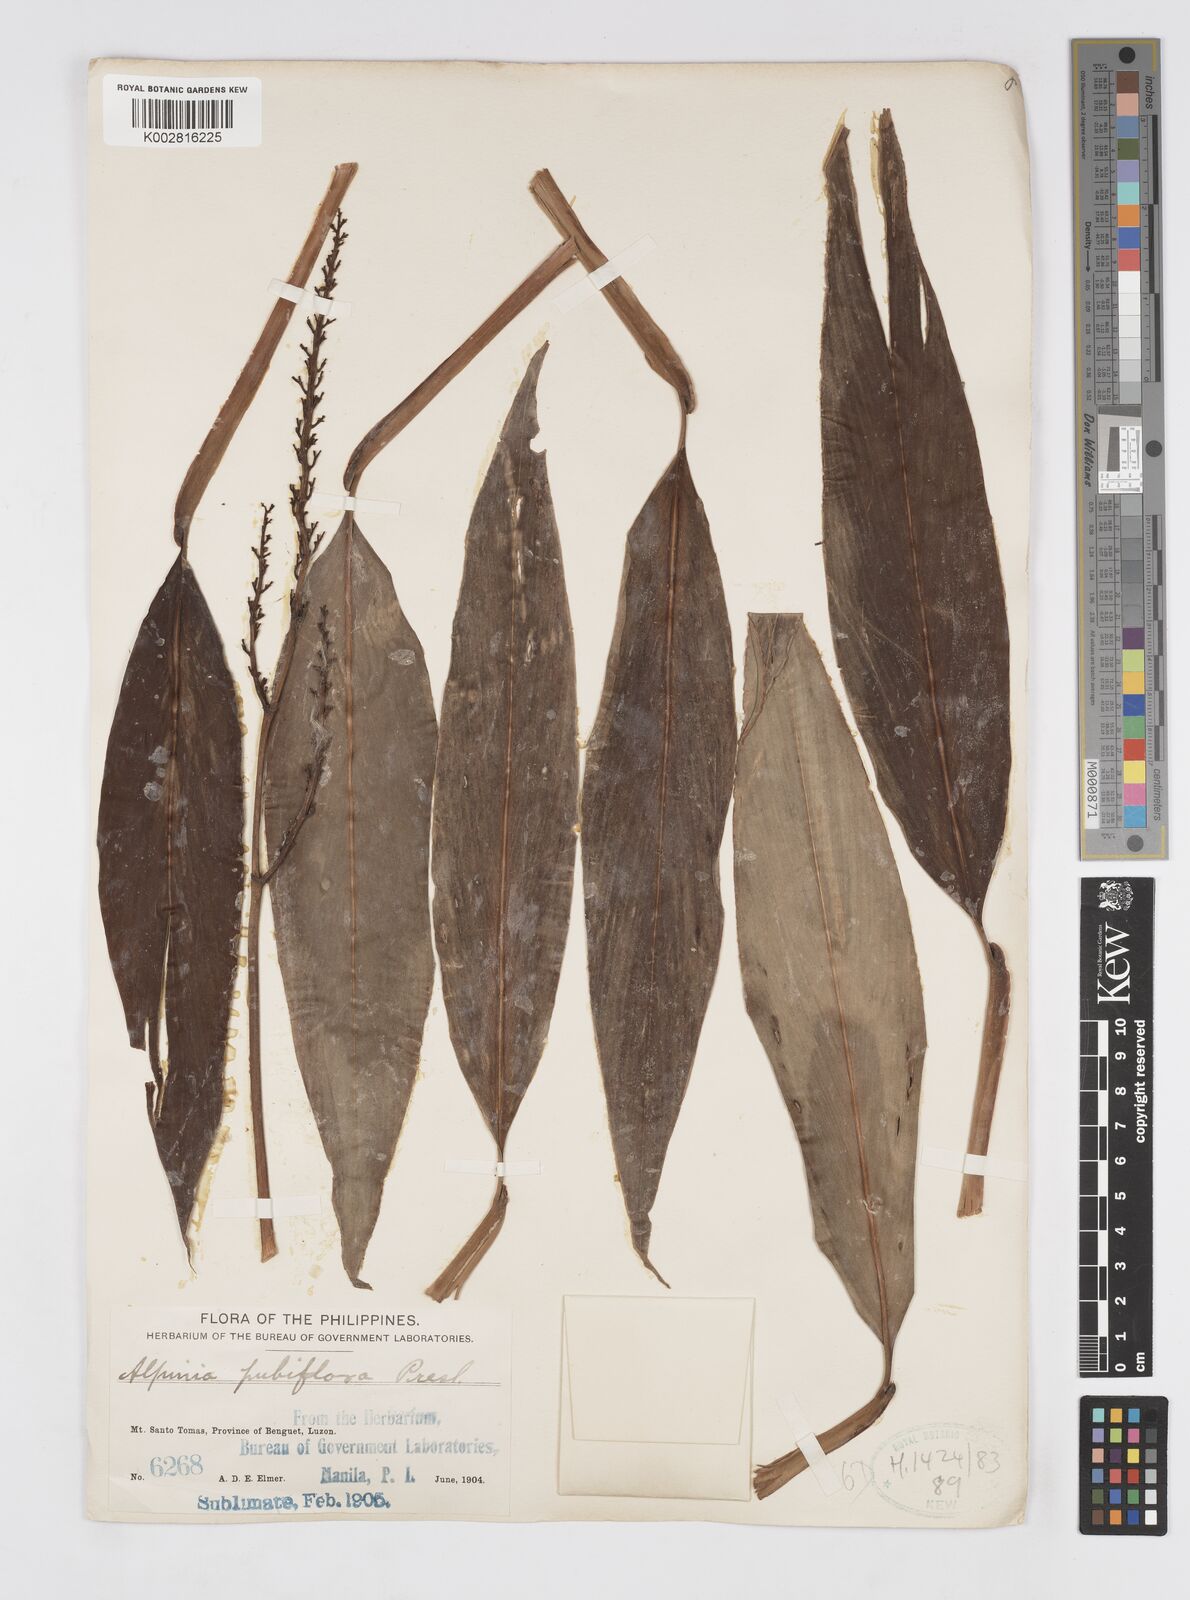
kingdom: Plantae
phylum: Tracheophyta
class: Liliopsida
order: Zingiberales
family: Zingiberaceae
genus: Alpinia
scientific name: Alpinia pubiflora
